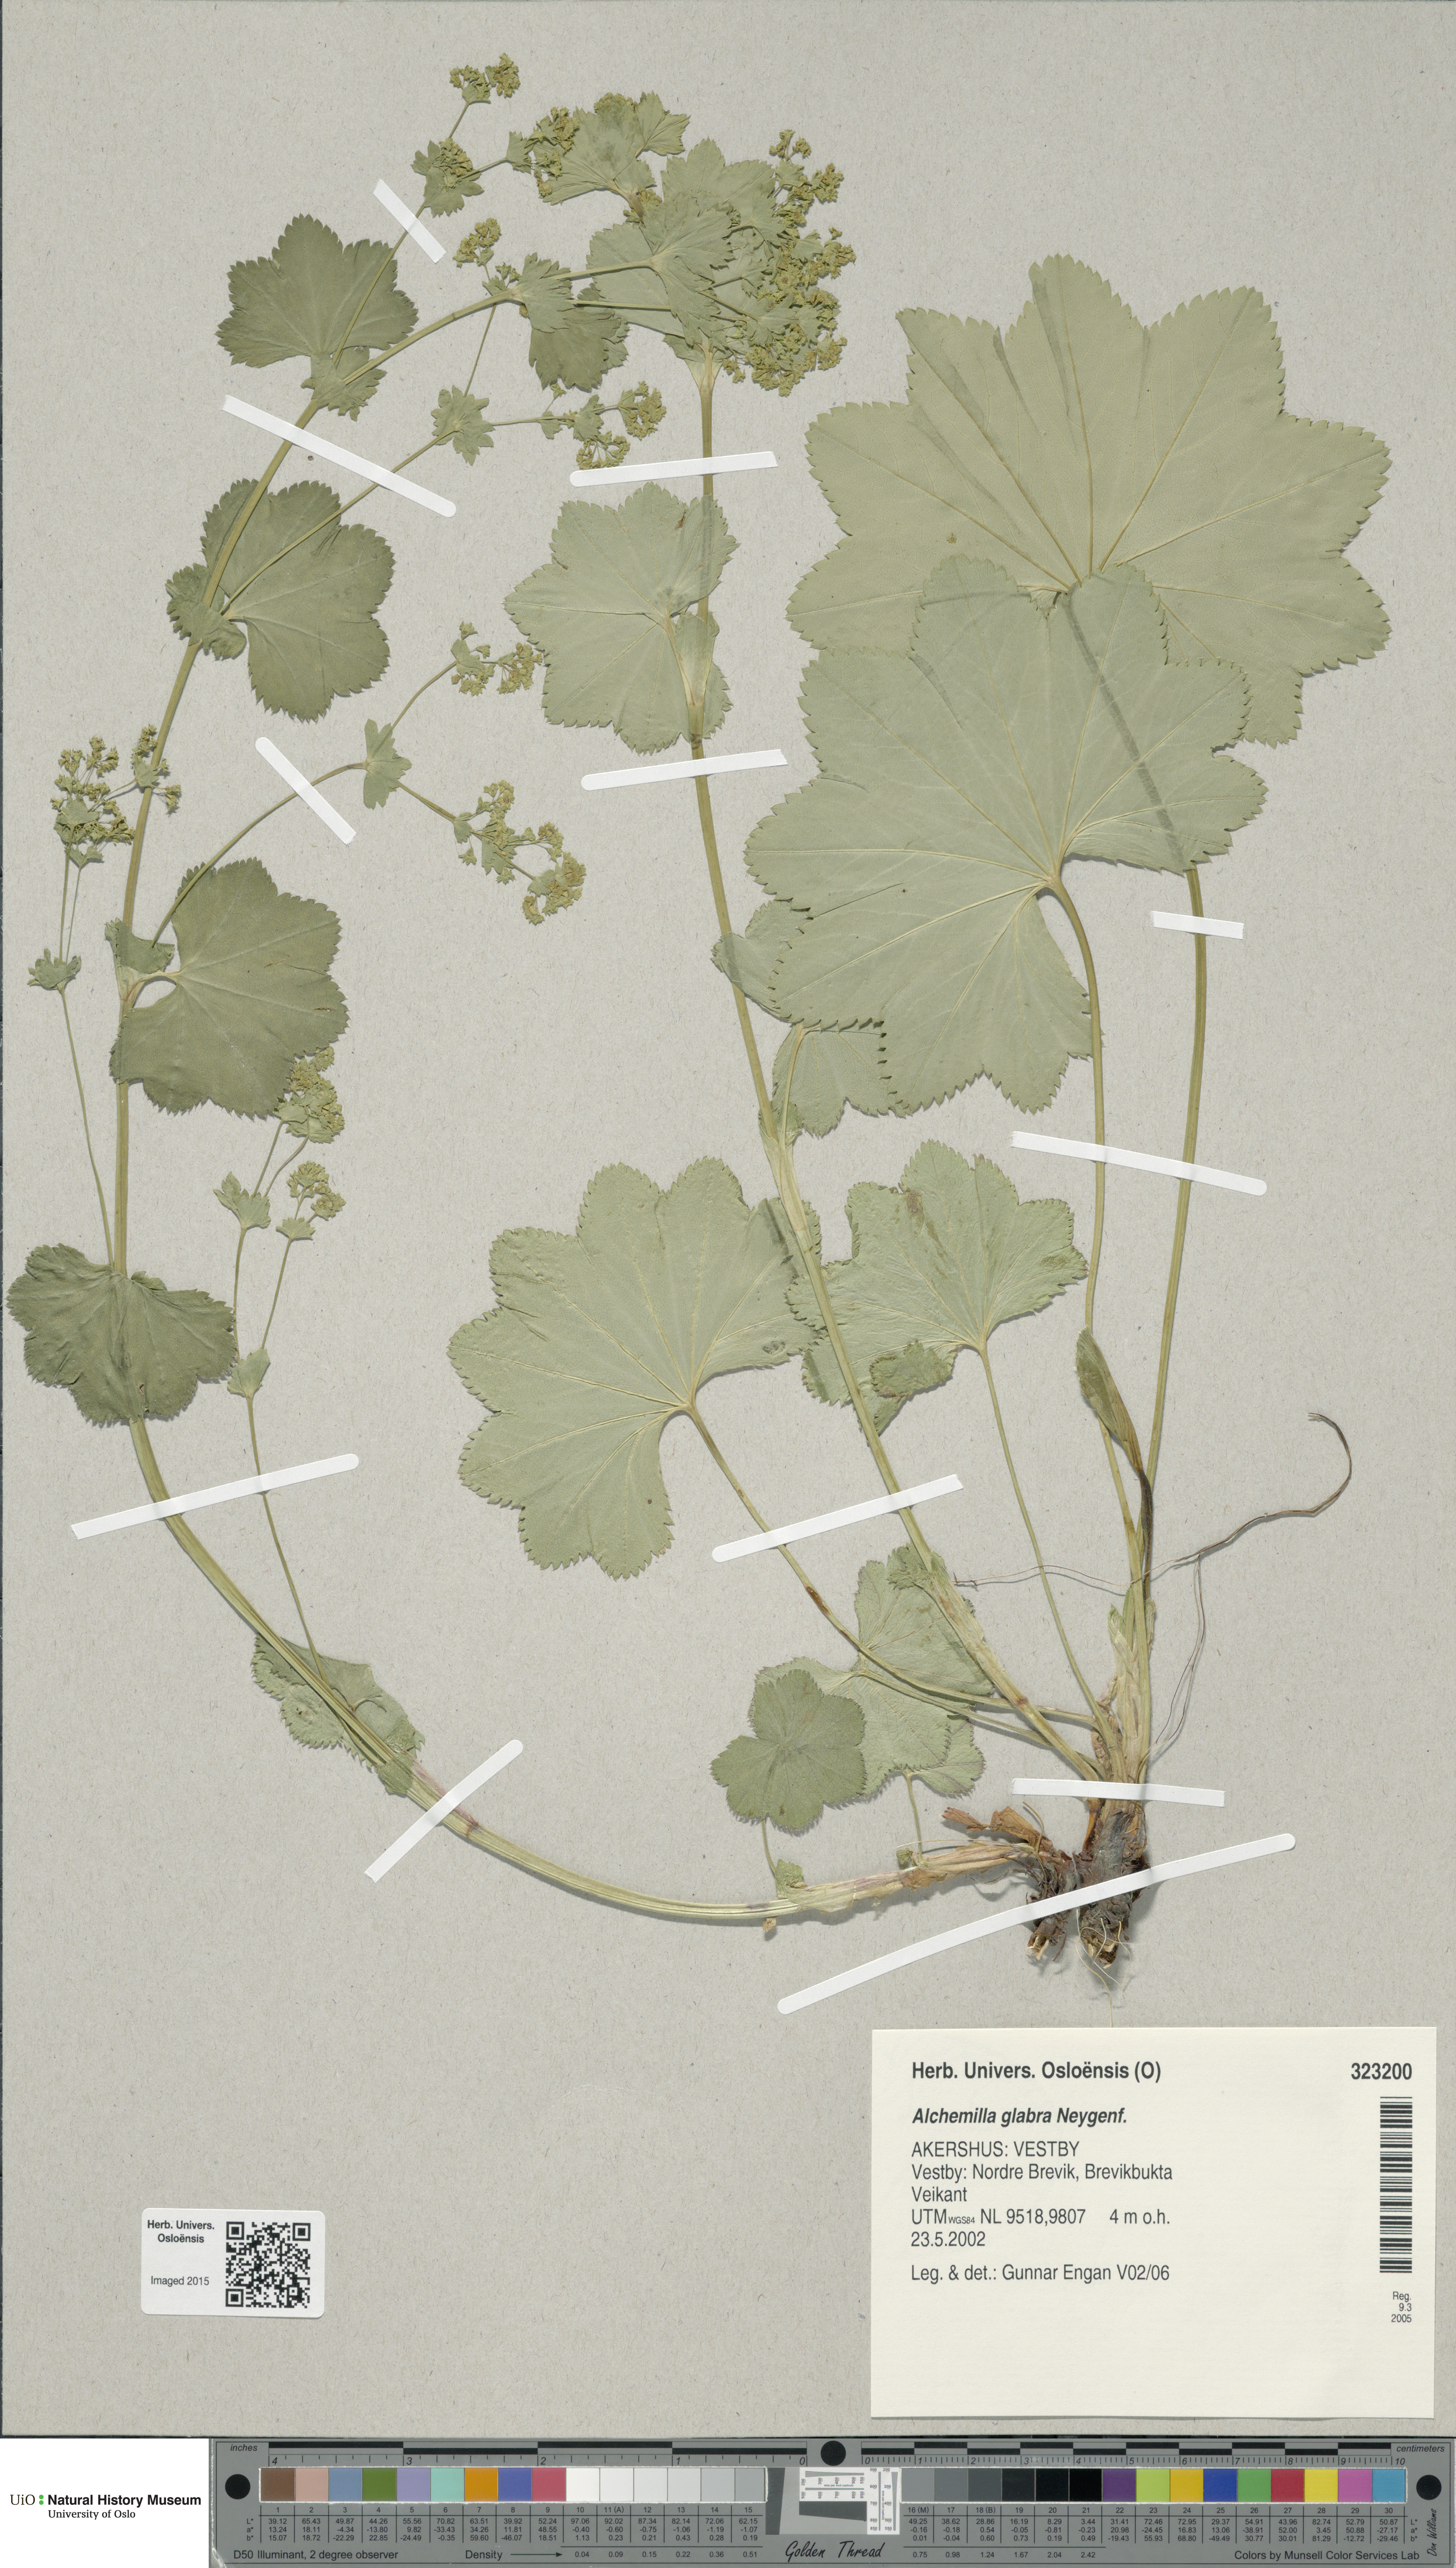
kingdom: Plantae
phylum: Tracheophyta
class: Magnoliopsida
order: Rosales
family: Rosaceae
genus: Alchemilla
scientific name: Alchemilla glabra
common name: Smooth lady's-mantle
